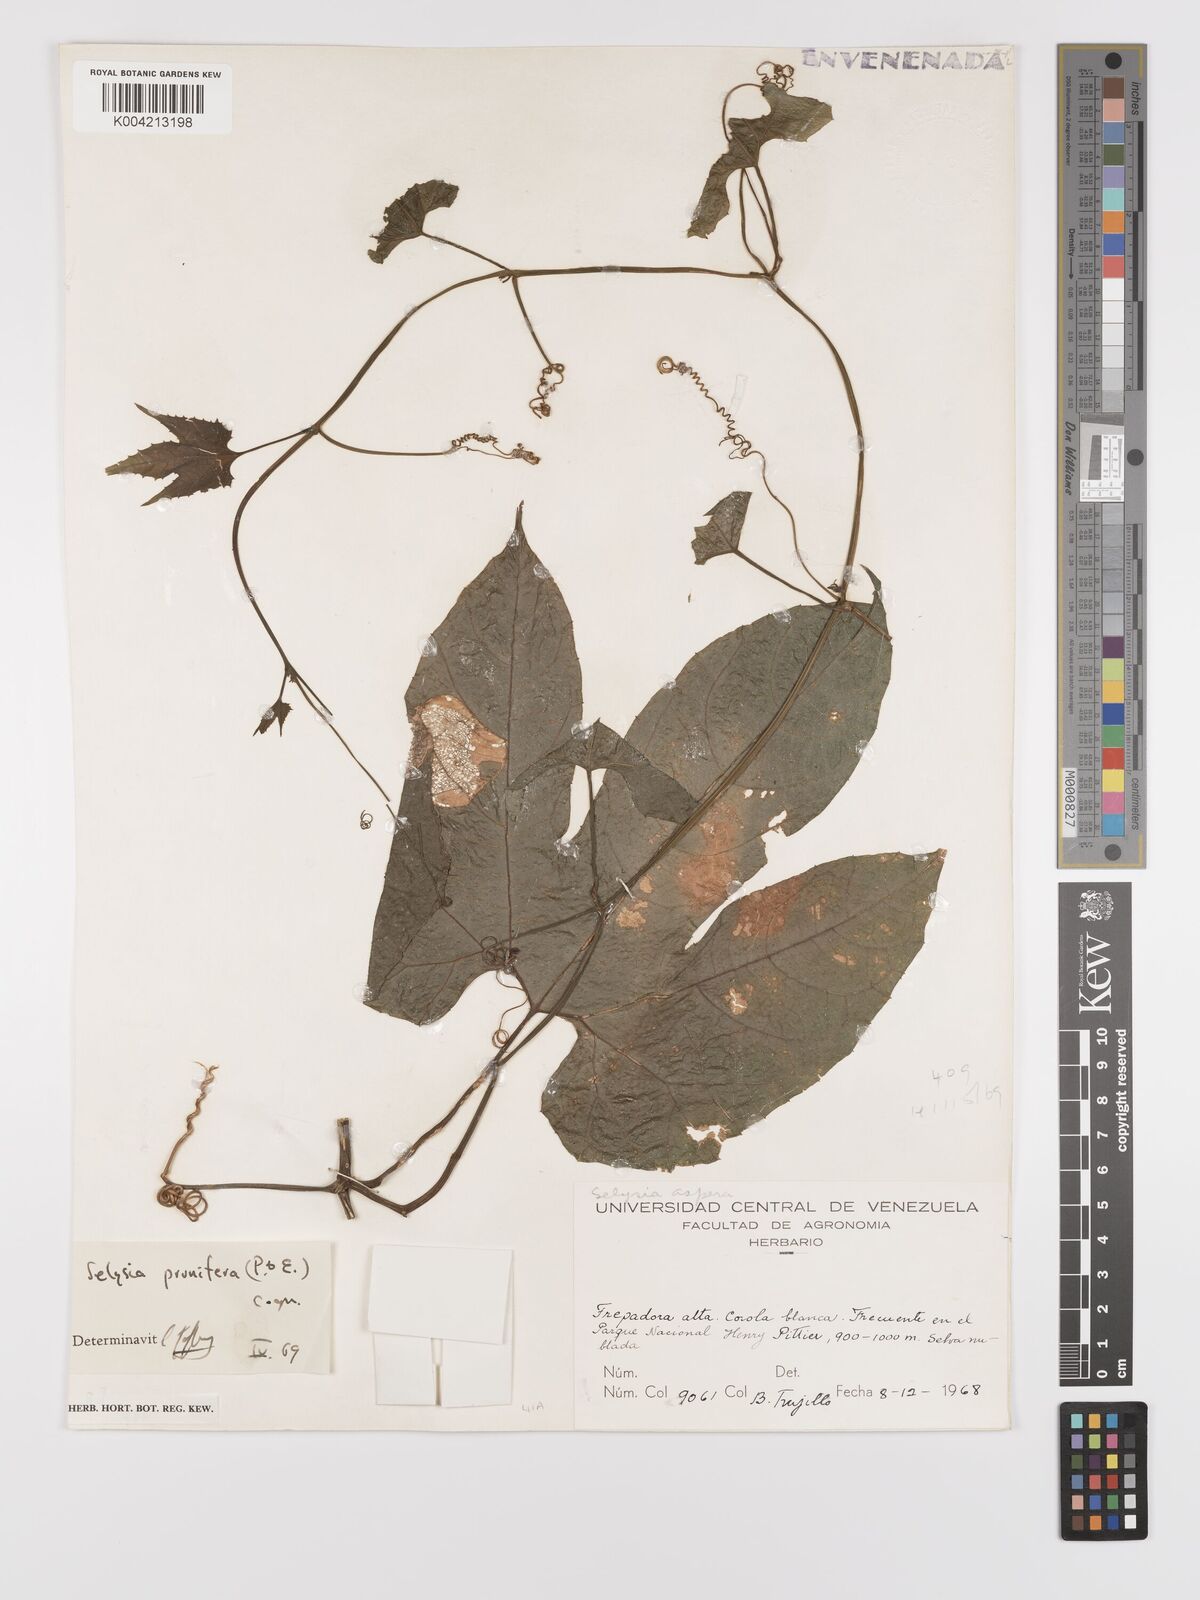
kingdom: Plantae
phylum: Tracheophyta
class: Magnoliopsida
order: Cucurbitales
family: Cucurbitaceae
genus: Cayaponia
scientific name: Cayaponia prunifera
